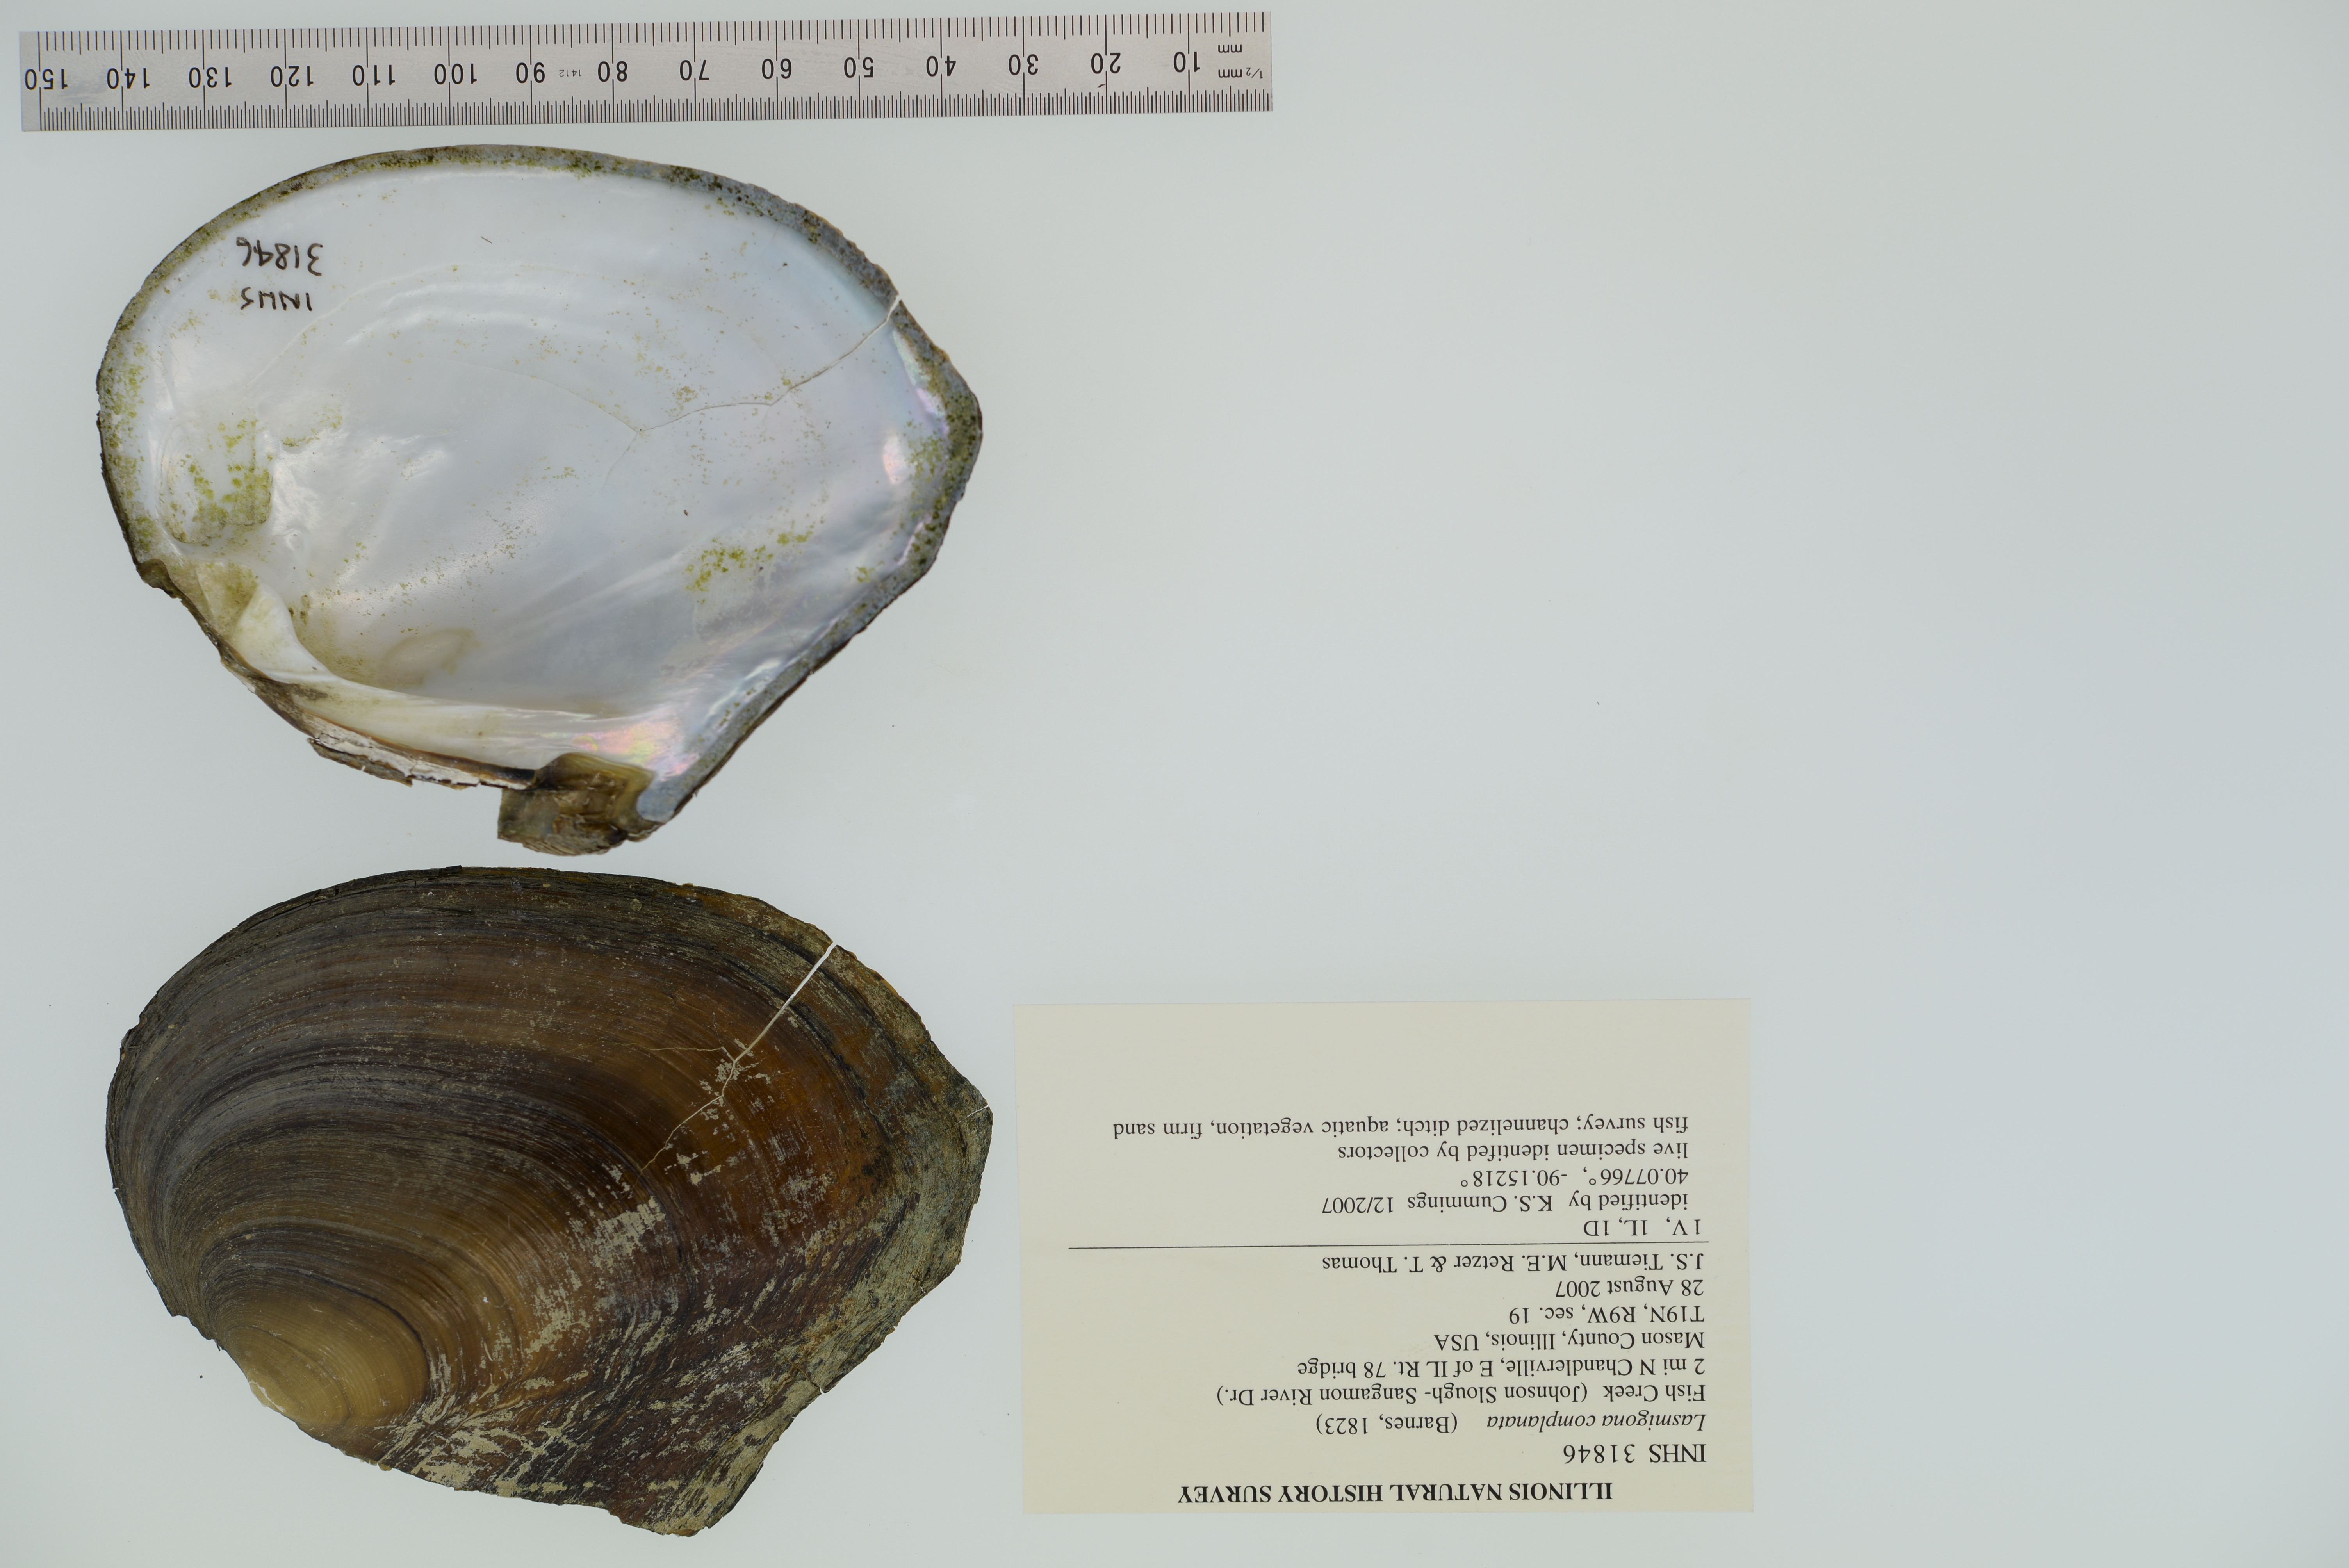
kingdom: Animalia
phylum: Mollusca
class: Bivalvia
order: Unionida
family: Unionidae
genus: Lasmigona
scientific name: Lasmigona complanata
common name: White heelsplitter
